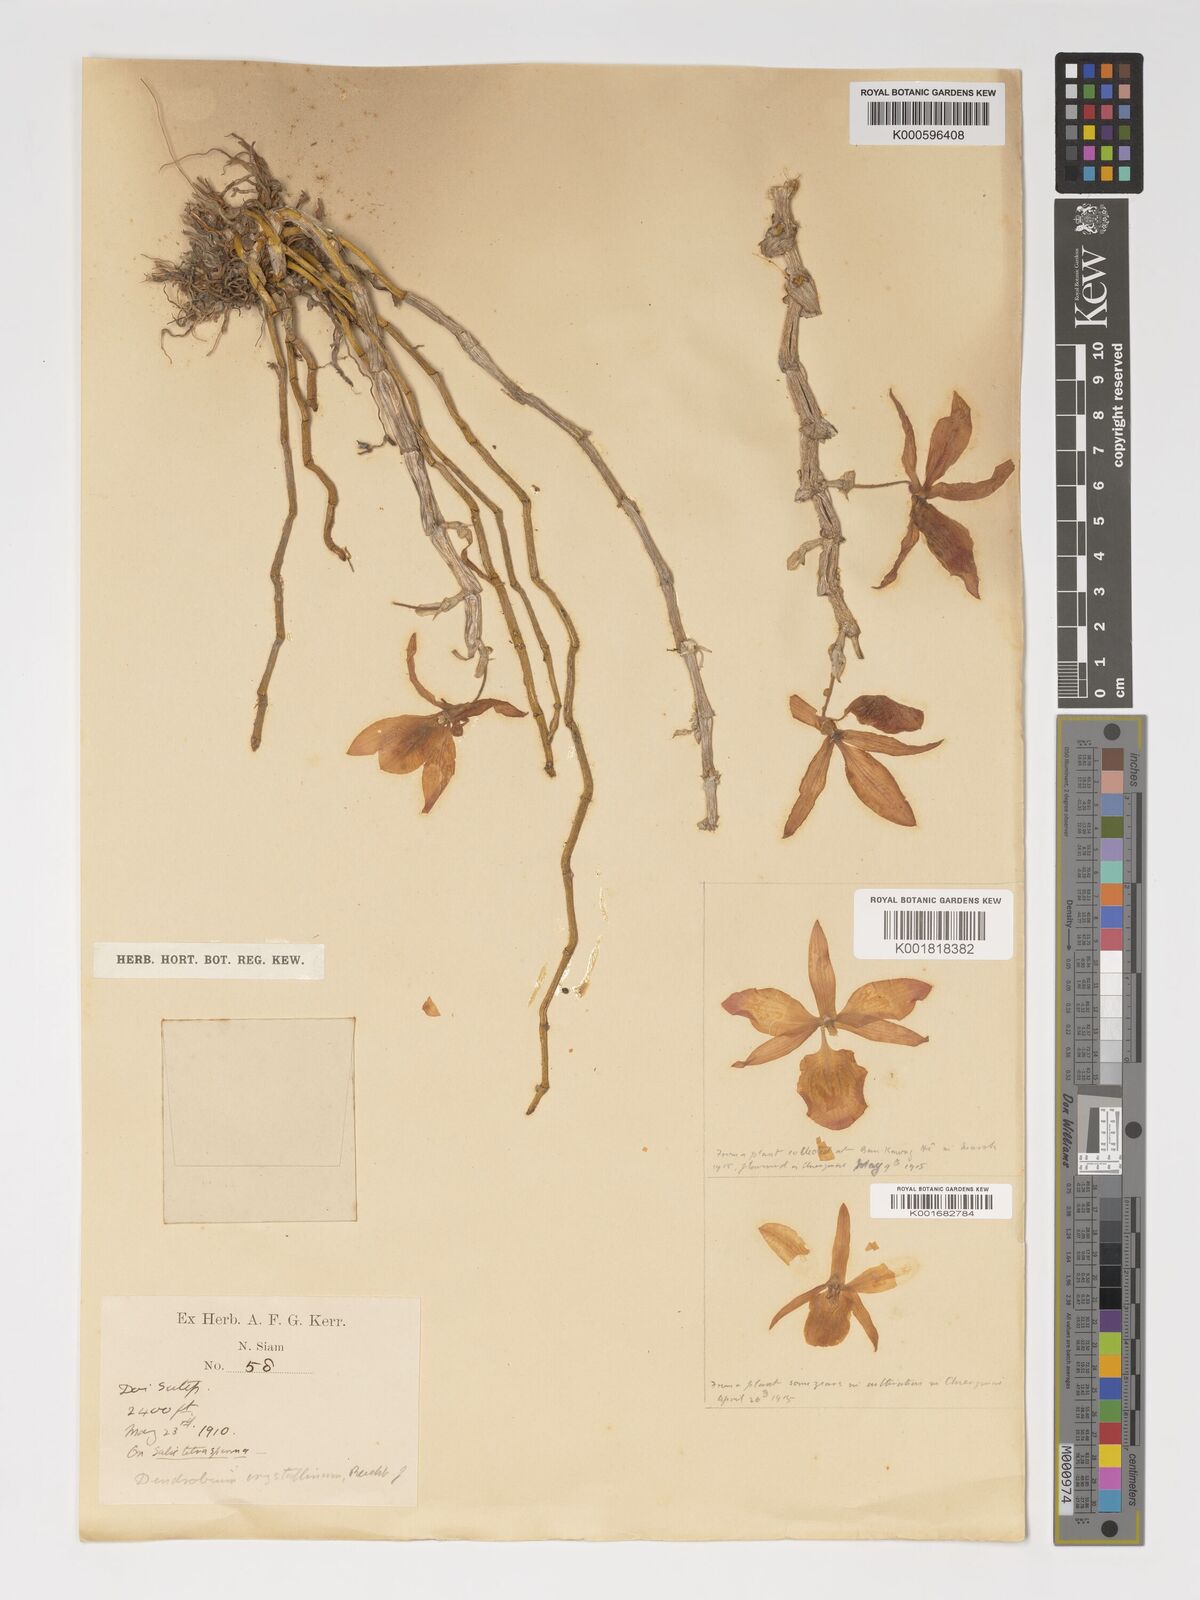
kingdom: Plantae
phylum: Tracheophyta
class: Liliopsida
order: Asparagales
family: Orchidaceae
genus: Dendrobium
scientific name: Dendrobium crystallinum
